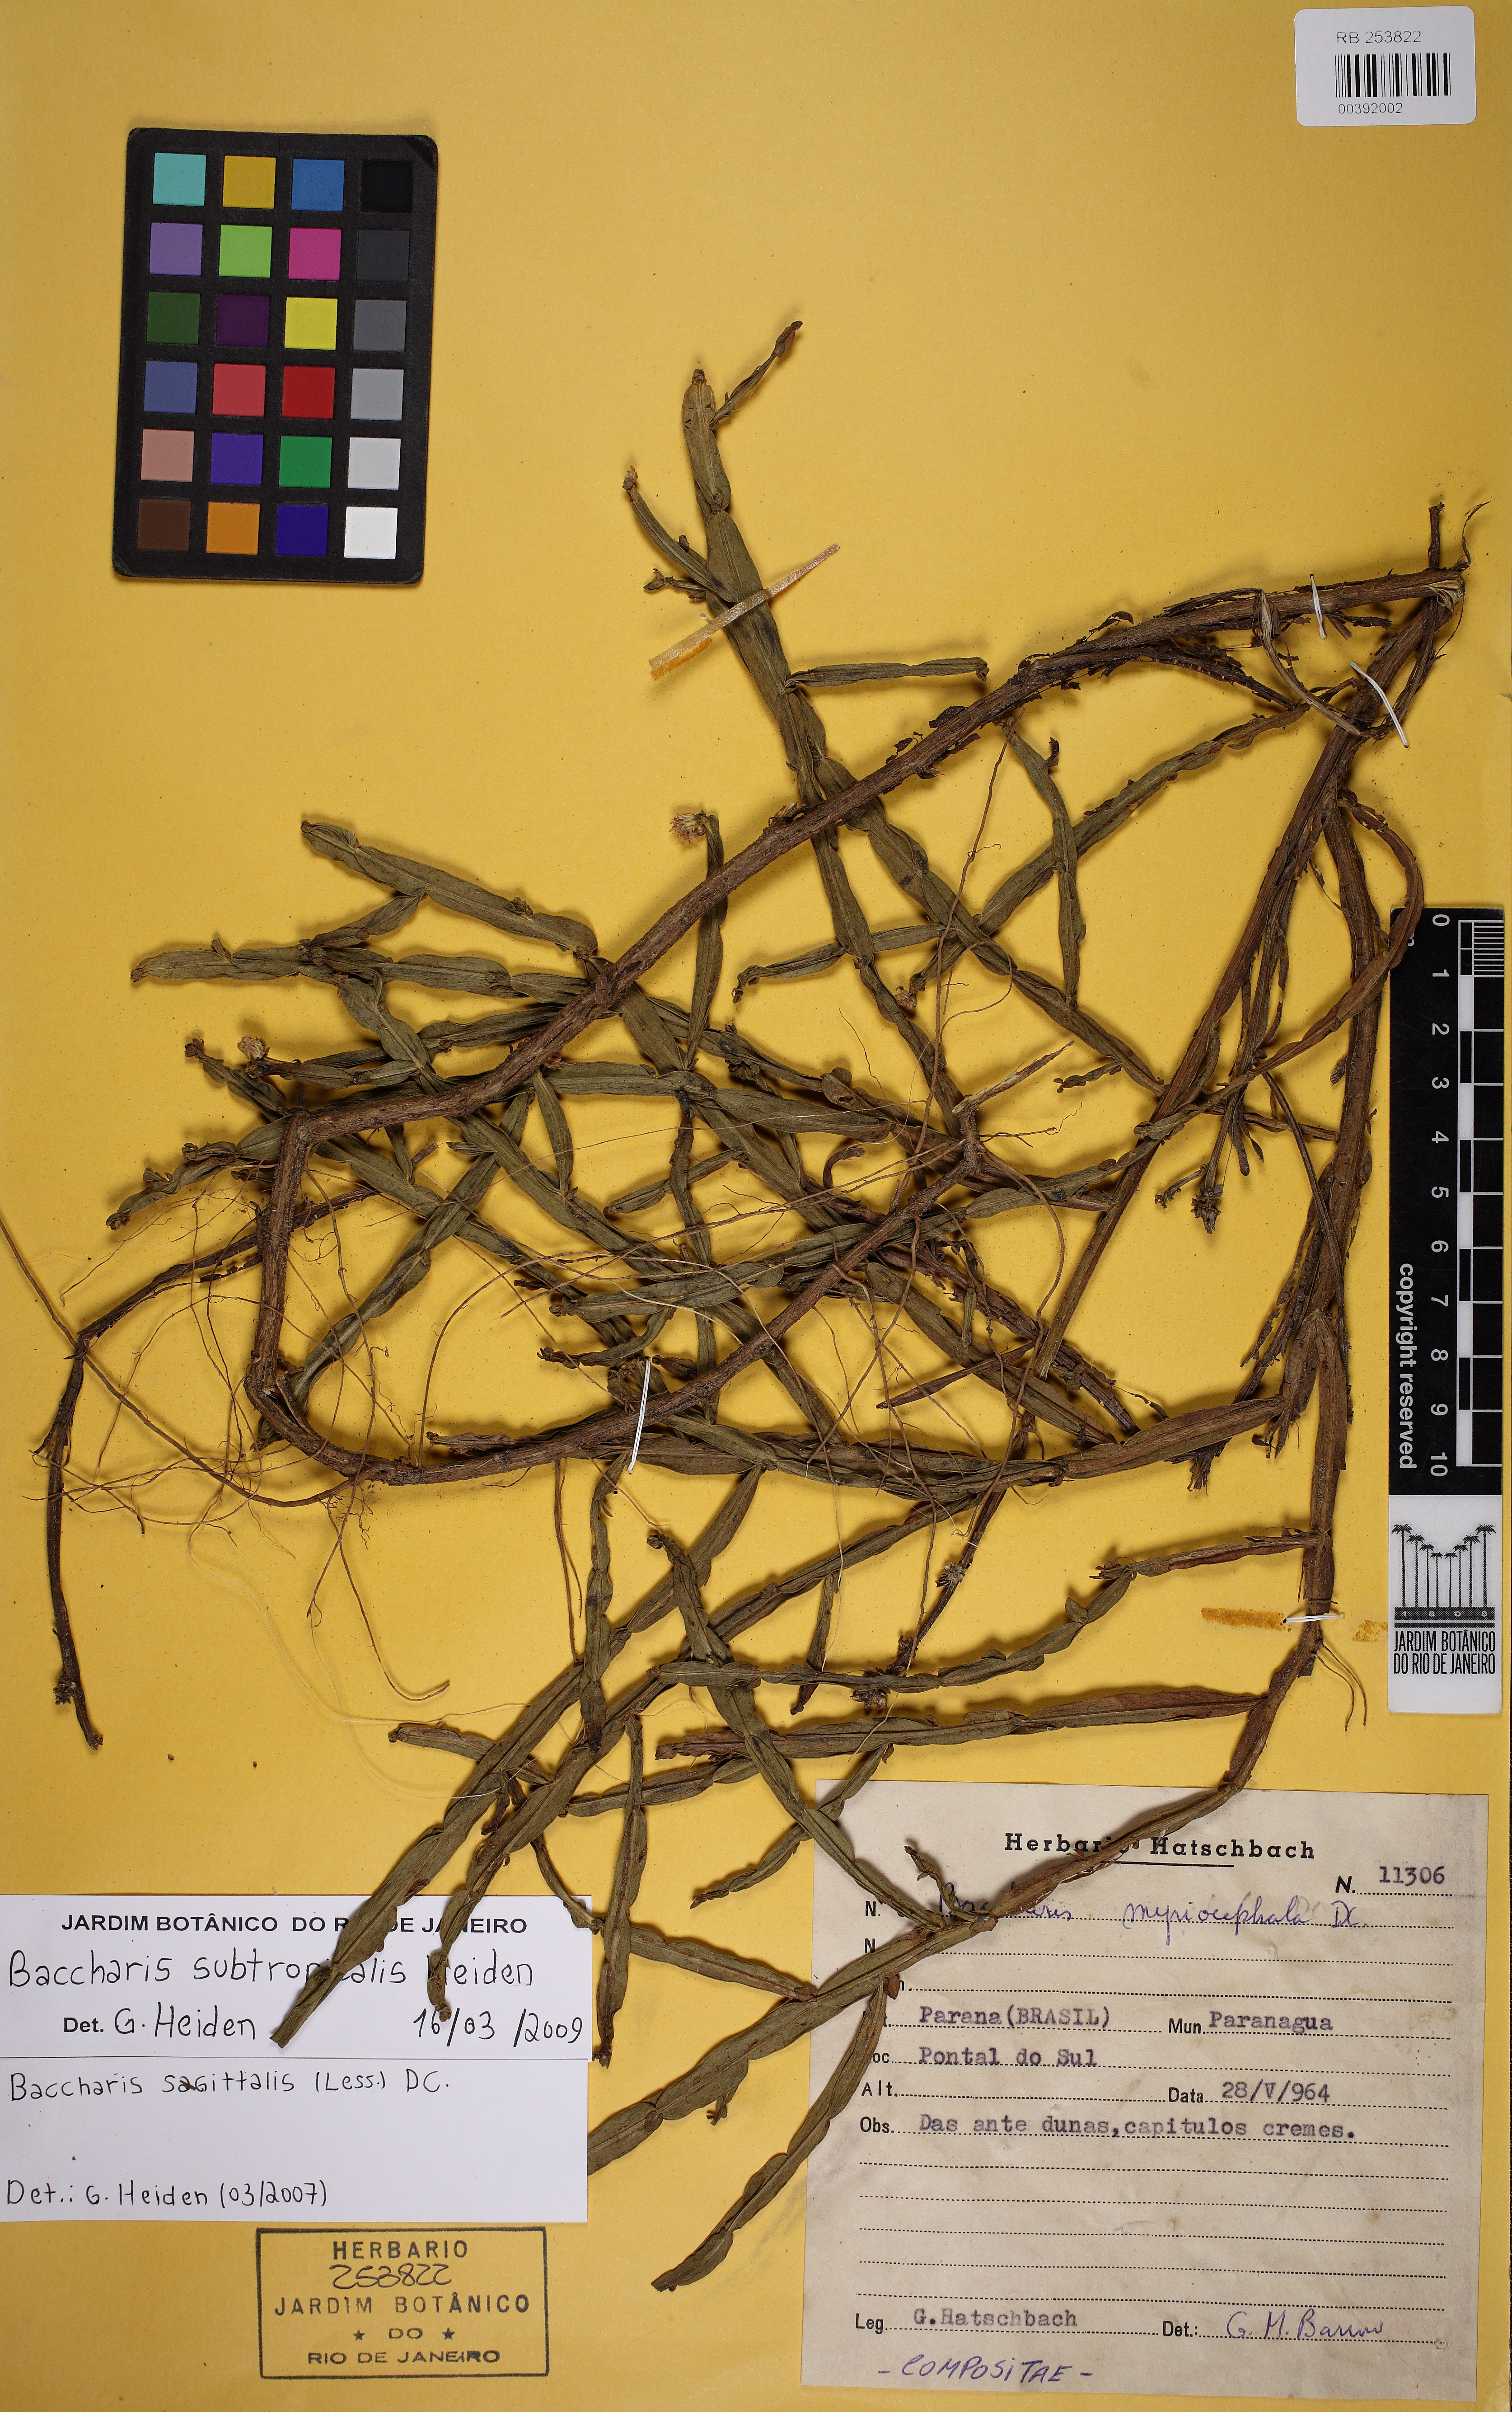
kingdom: Plantae
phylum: Tracheophyta
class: Magnoliopsida
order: Asterales
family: Asteraceae
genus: Baccharis
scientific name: Baccharis subtropicalis
